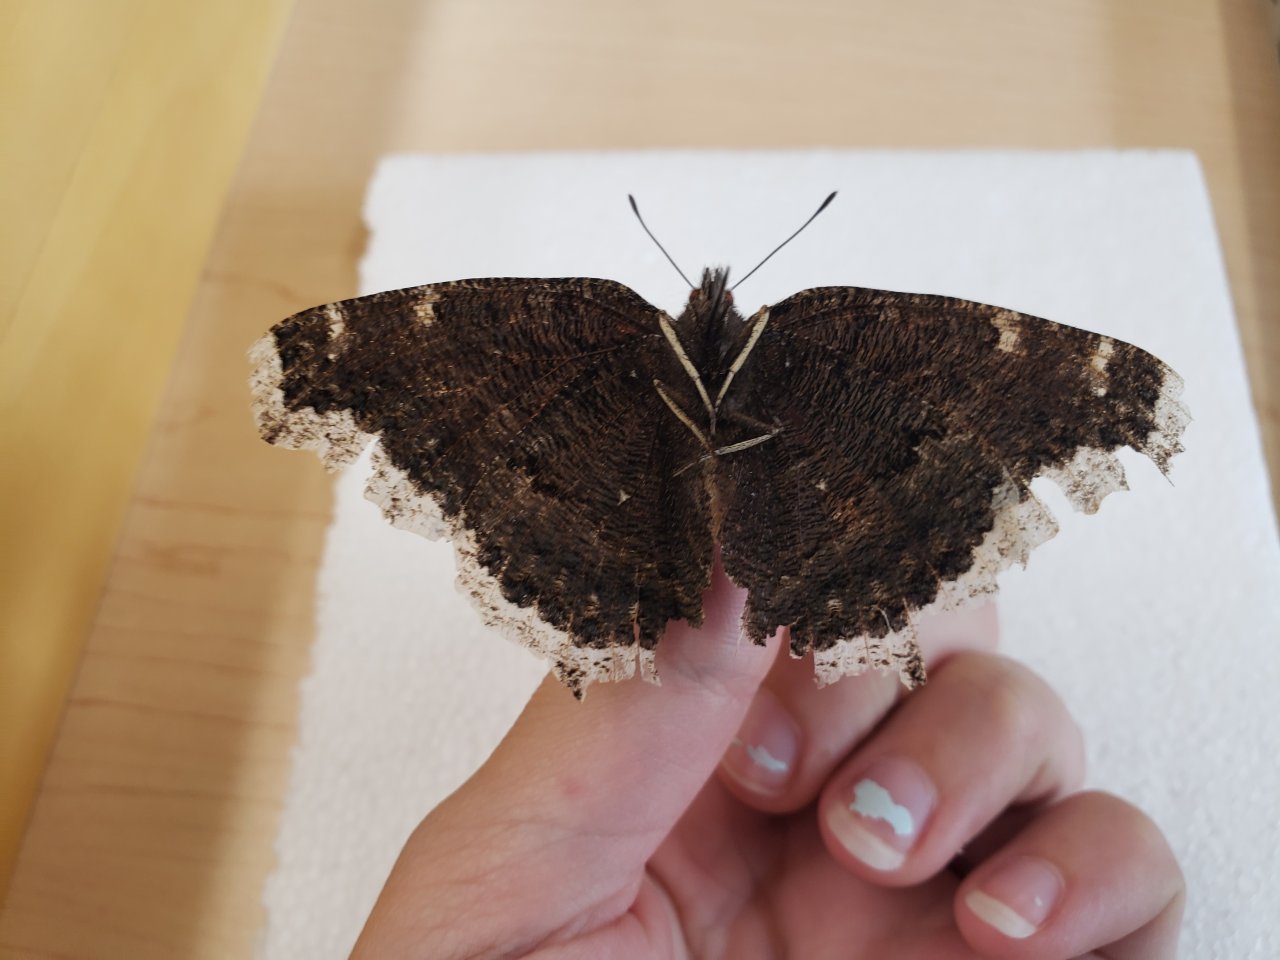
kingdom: Animalia
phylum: Arthropoda
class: Insecta
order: Lepidoptera
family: Nymphalidae
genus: Nymphalis
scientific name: Nymphalis antiopa
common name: Mourning Cloak
